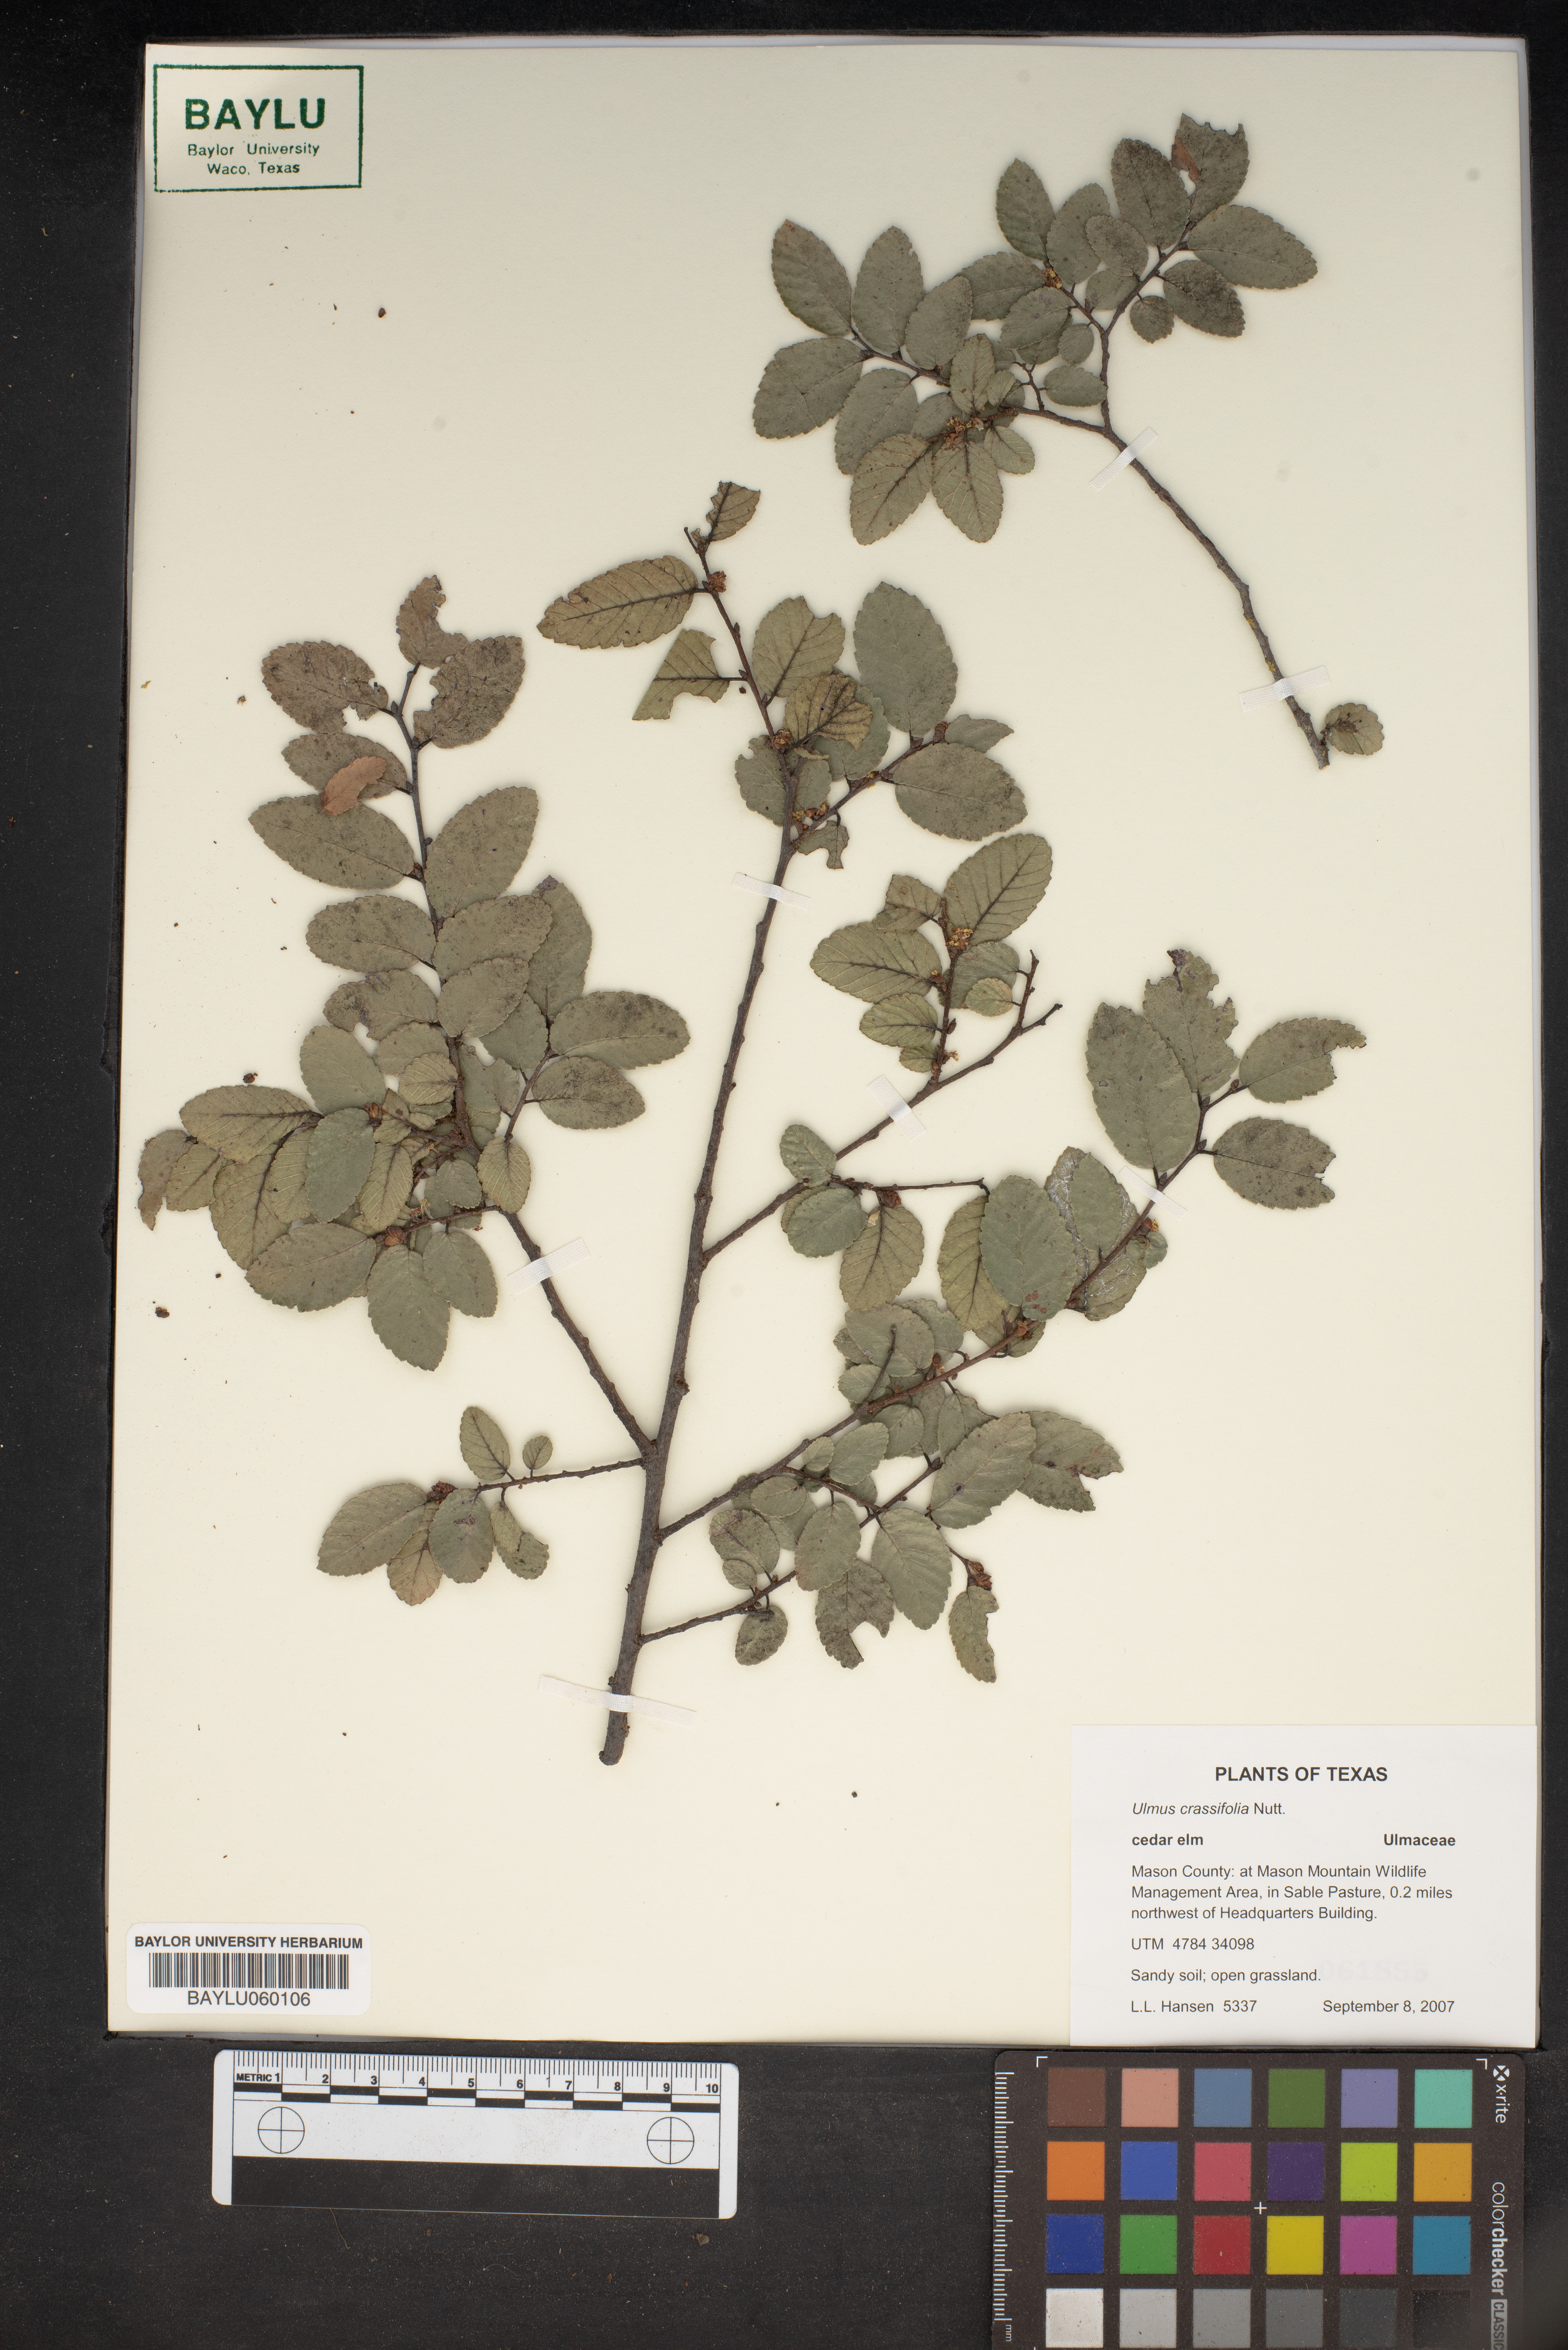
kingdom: Plantae
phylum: Tracheophyta
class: Magnoliopsida
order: Rosales
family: Ulmaceae
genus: Ulmus
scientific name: Ulmus crassifolia
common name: Basket elm
